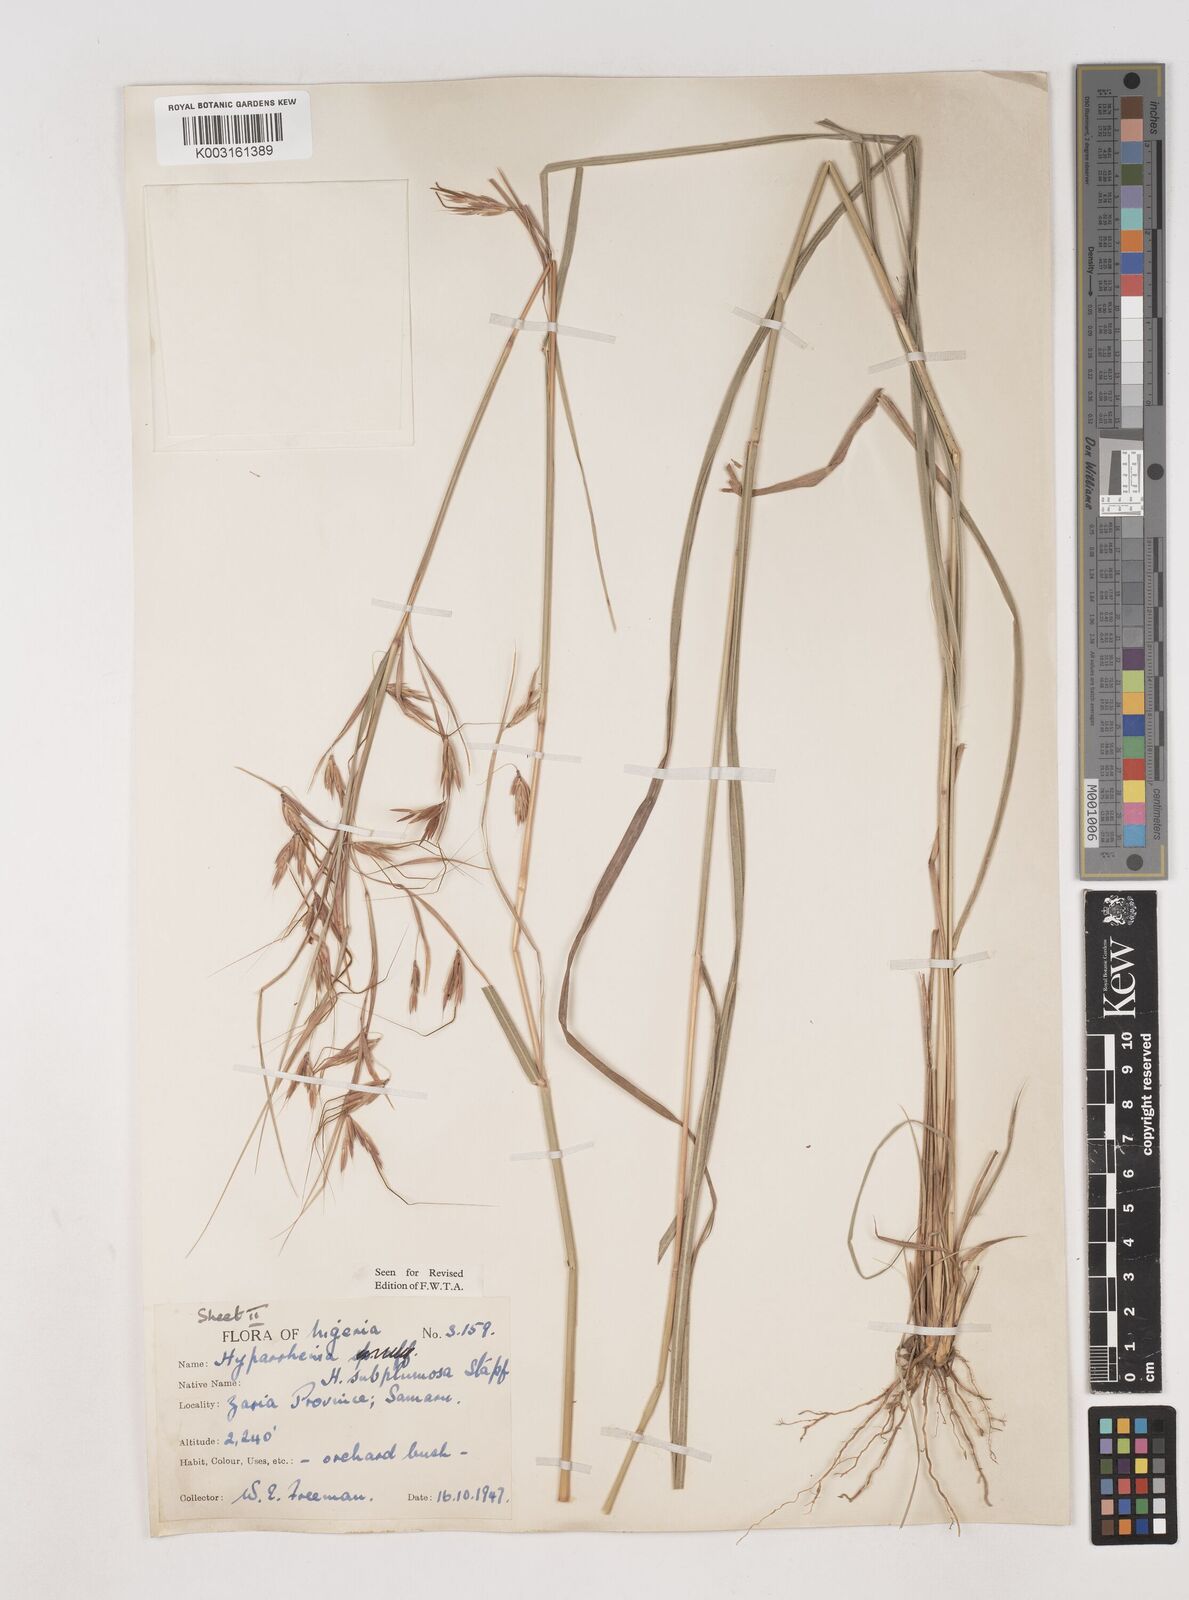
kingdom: Plantae
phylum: Tracheophyta
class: Liliopsida
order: Poales
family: Poaceae
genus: Hyparrhenia
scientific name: Hyparrhenia subplumosa
